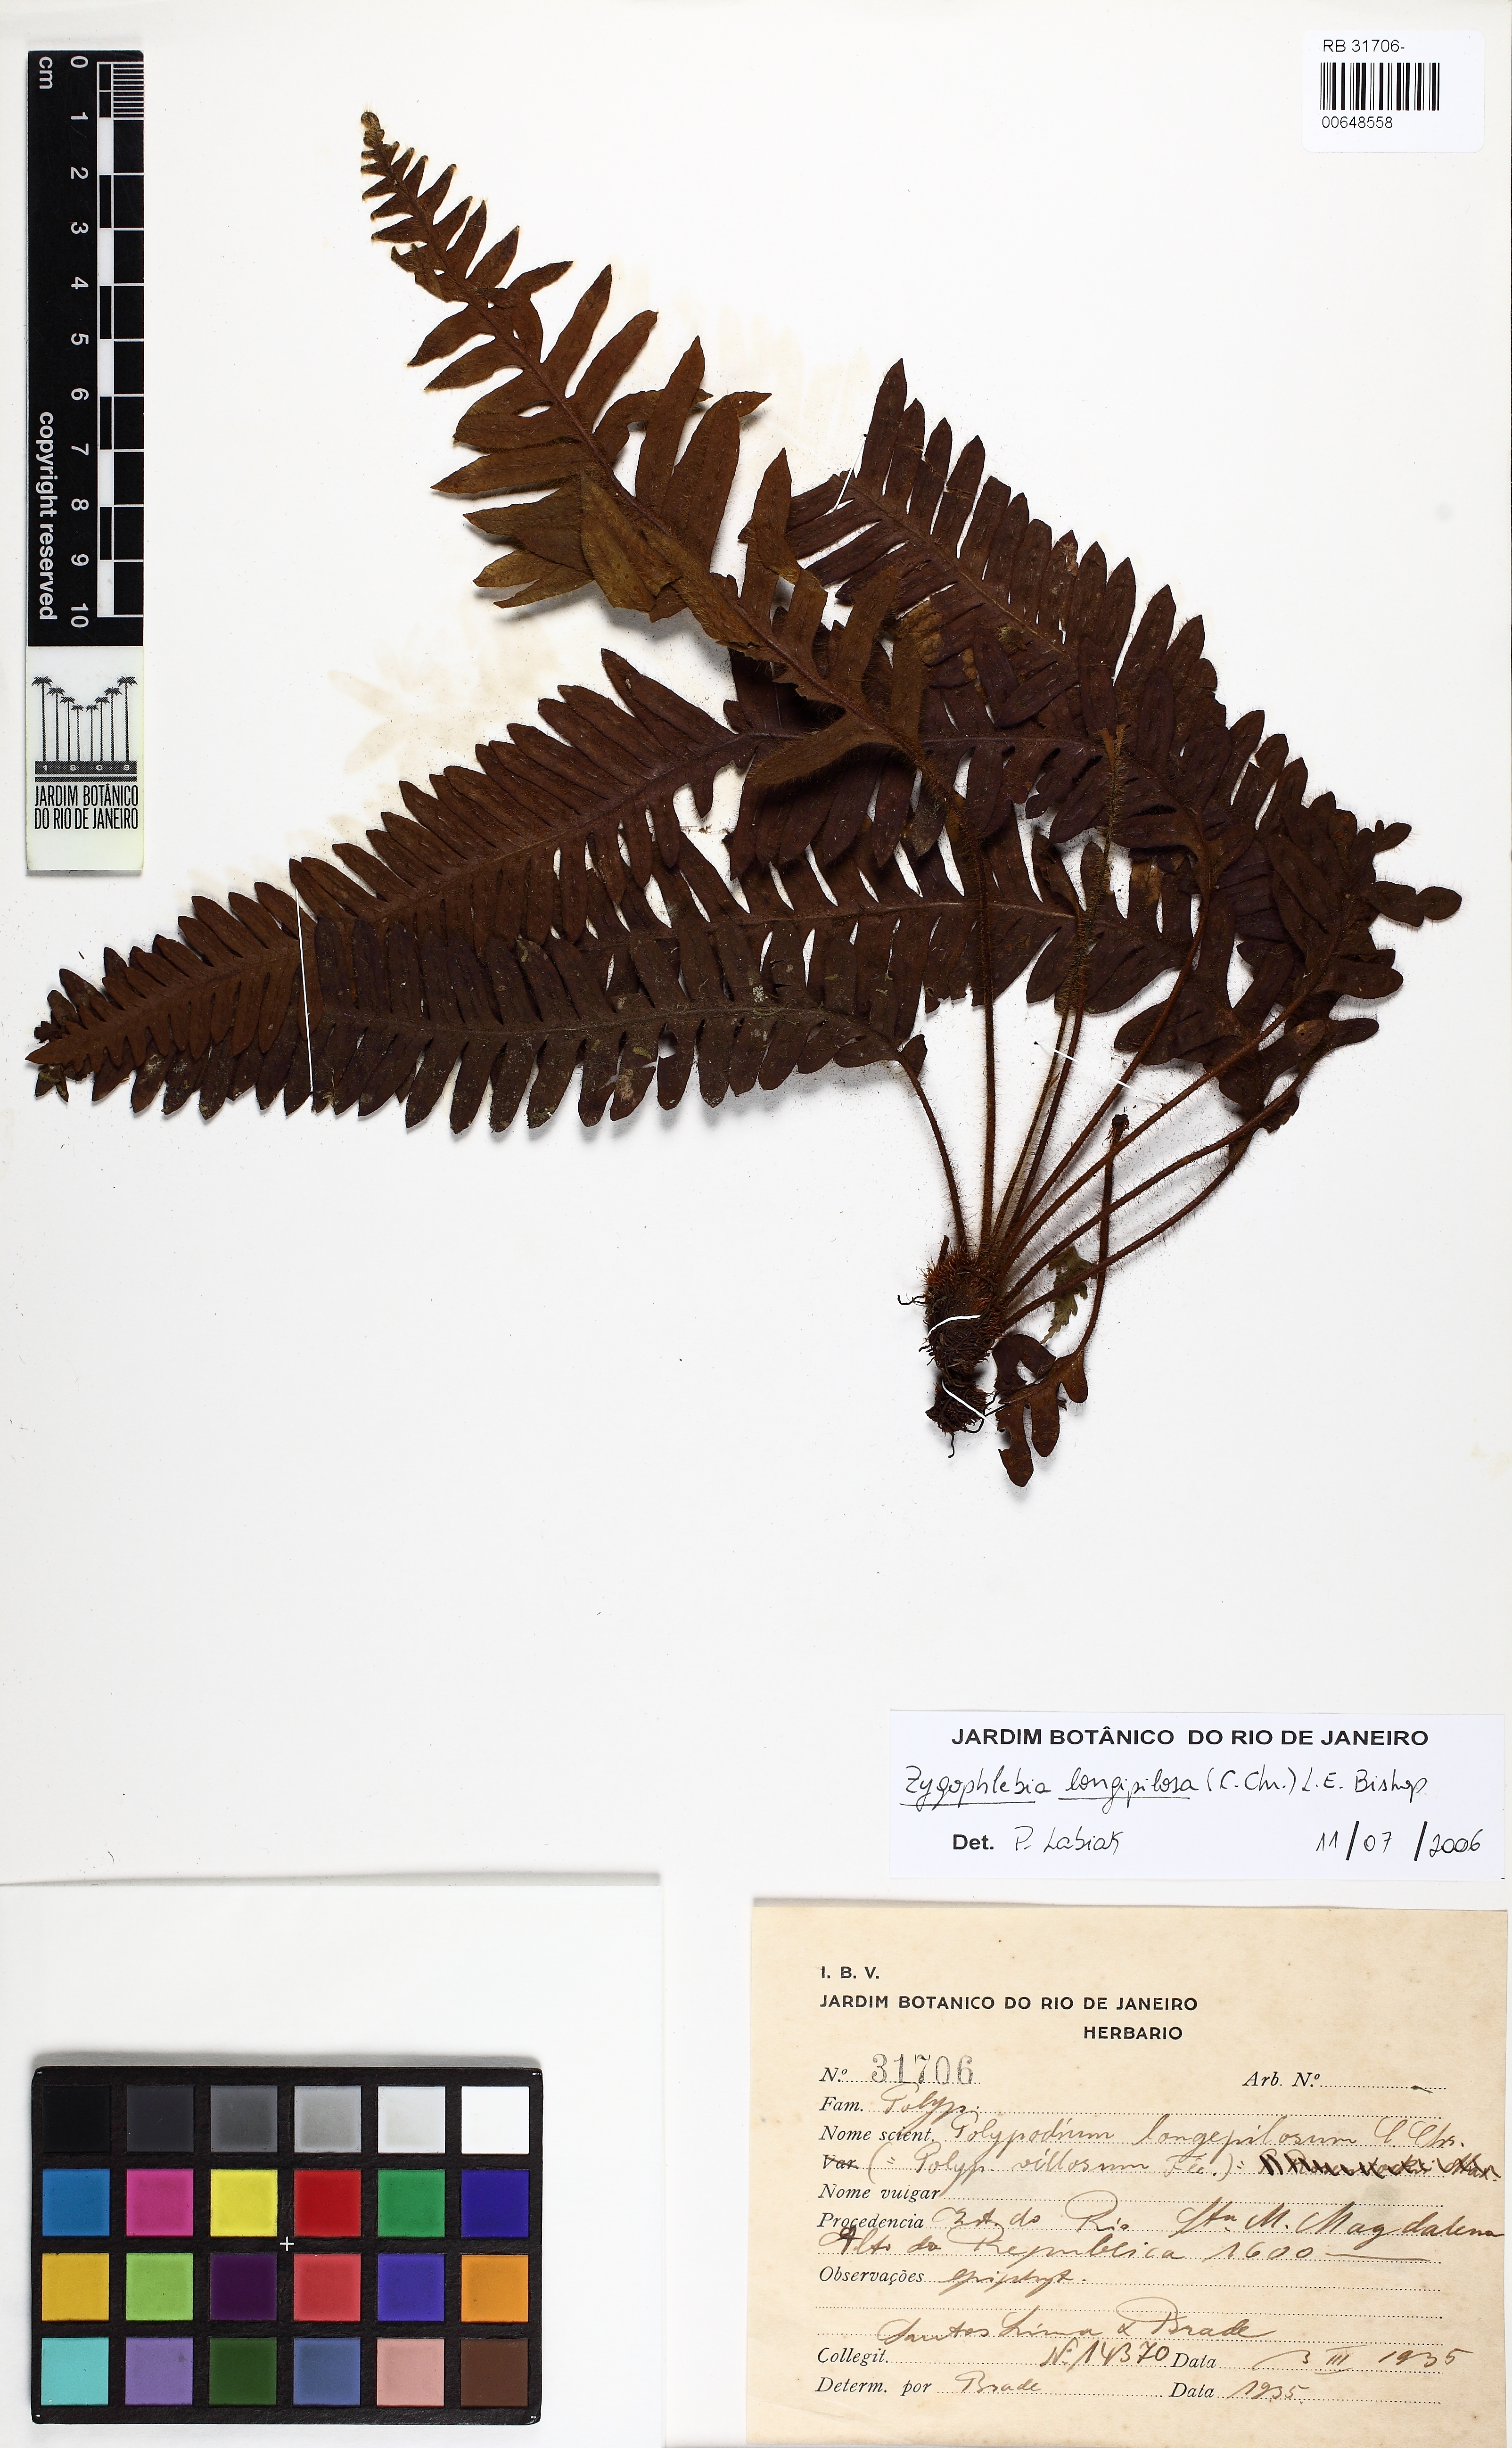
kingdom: Plantae
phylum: Tracheophyta
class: Polypodiopsida
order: Polypodiales
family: Polypodiaceae
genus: Enterosora
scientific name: Enterosora longipilosa
